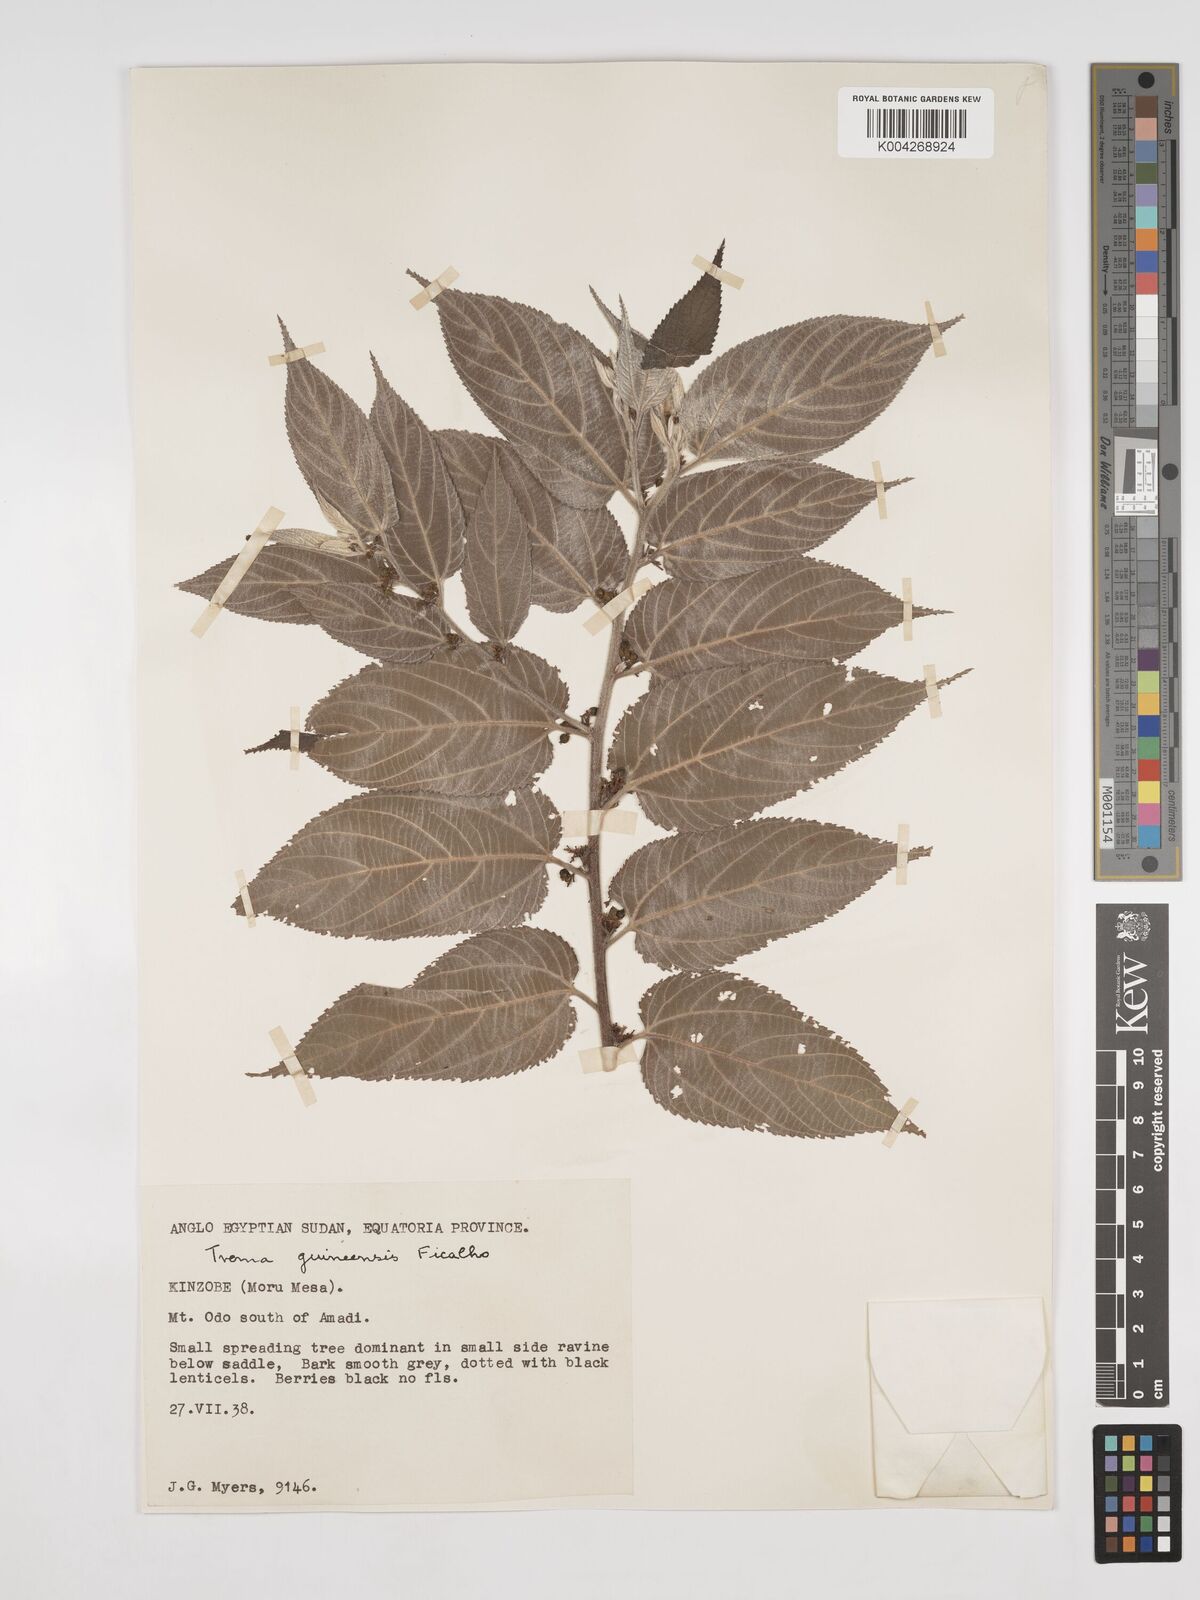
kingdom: Plantae
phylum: Tracheophyta
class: Magnoliopsida
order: Rosales
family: Cannabaceae
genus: Trema
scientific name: Trema orientale
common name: Indian charcoal tree
